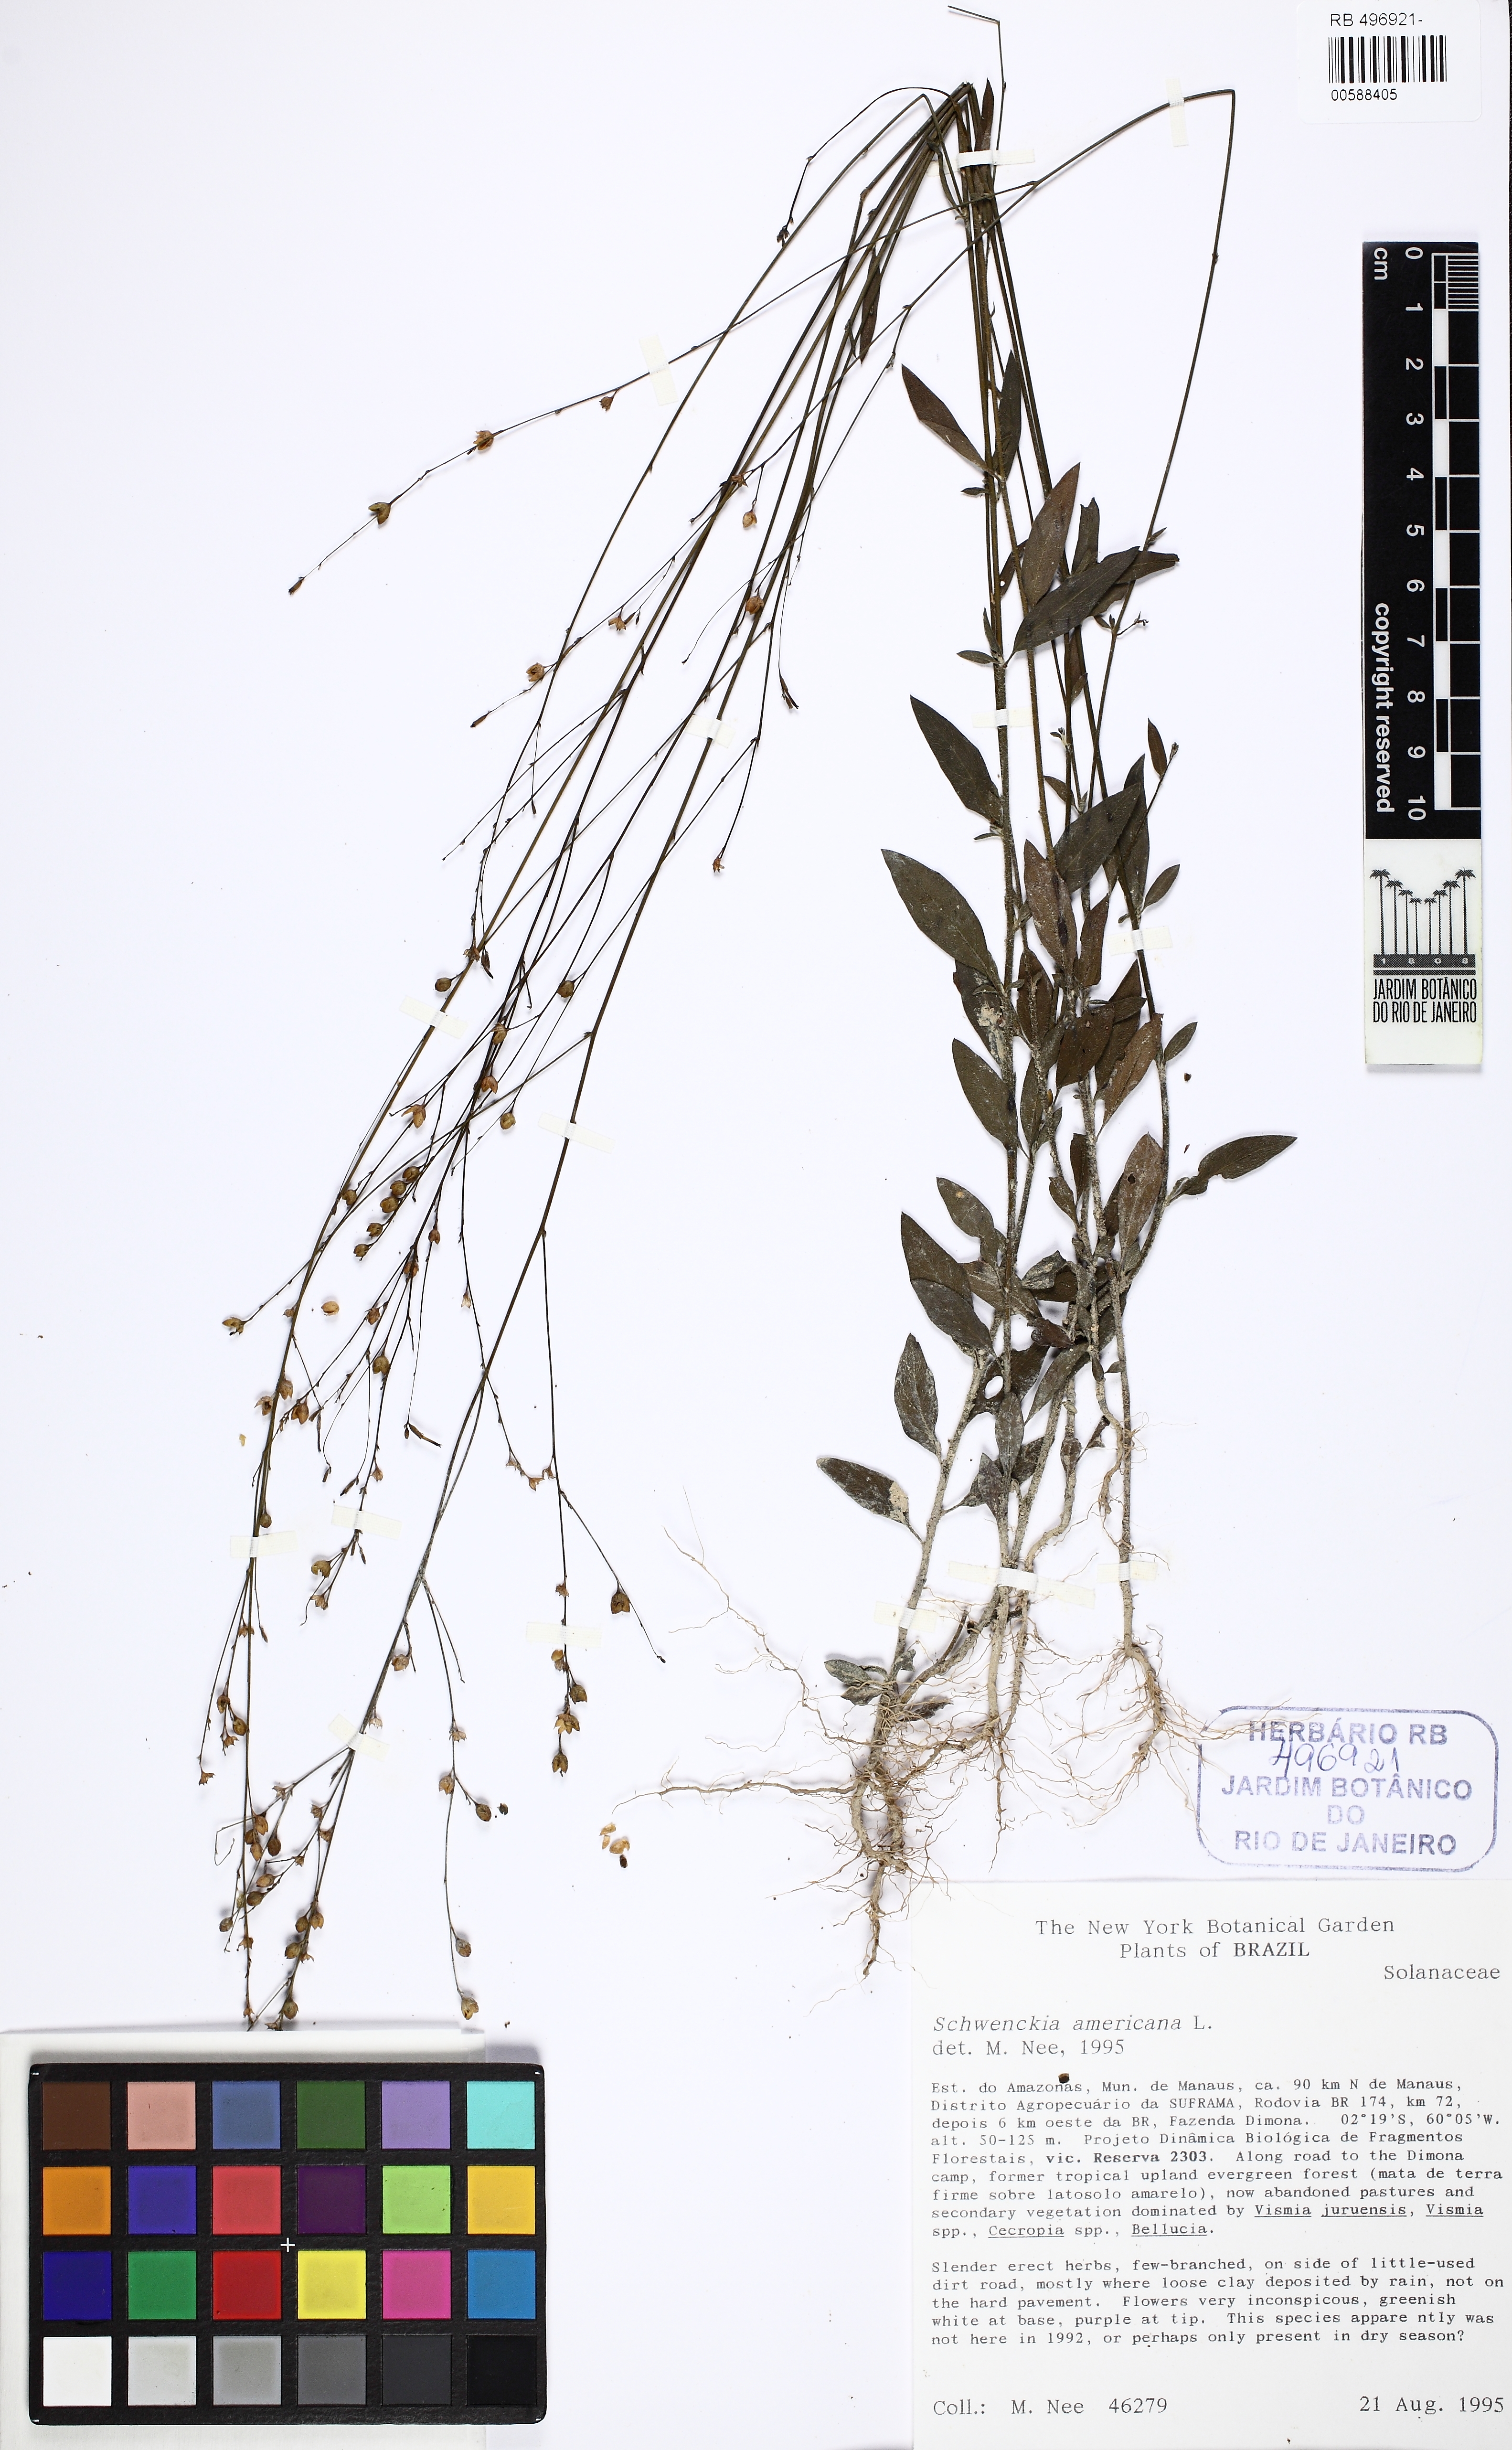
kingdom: Plantae
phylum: Tracheophyta
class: Magnoliopsida
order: Solanales
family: Solanaceae
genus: Schwenckia
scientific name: Schwenckia americana
